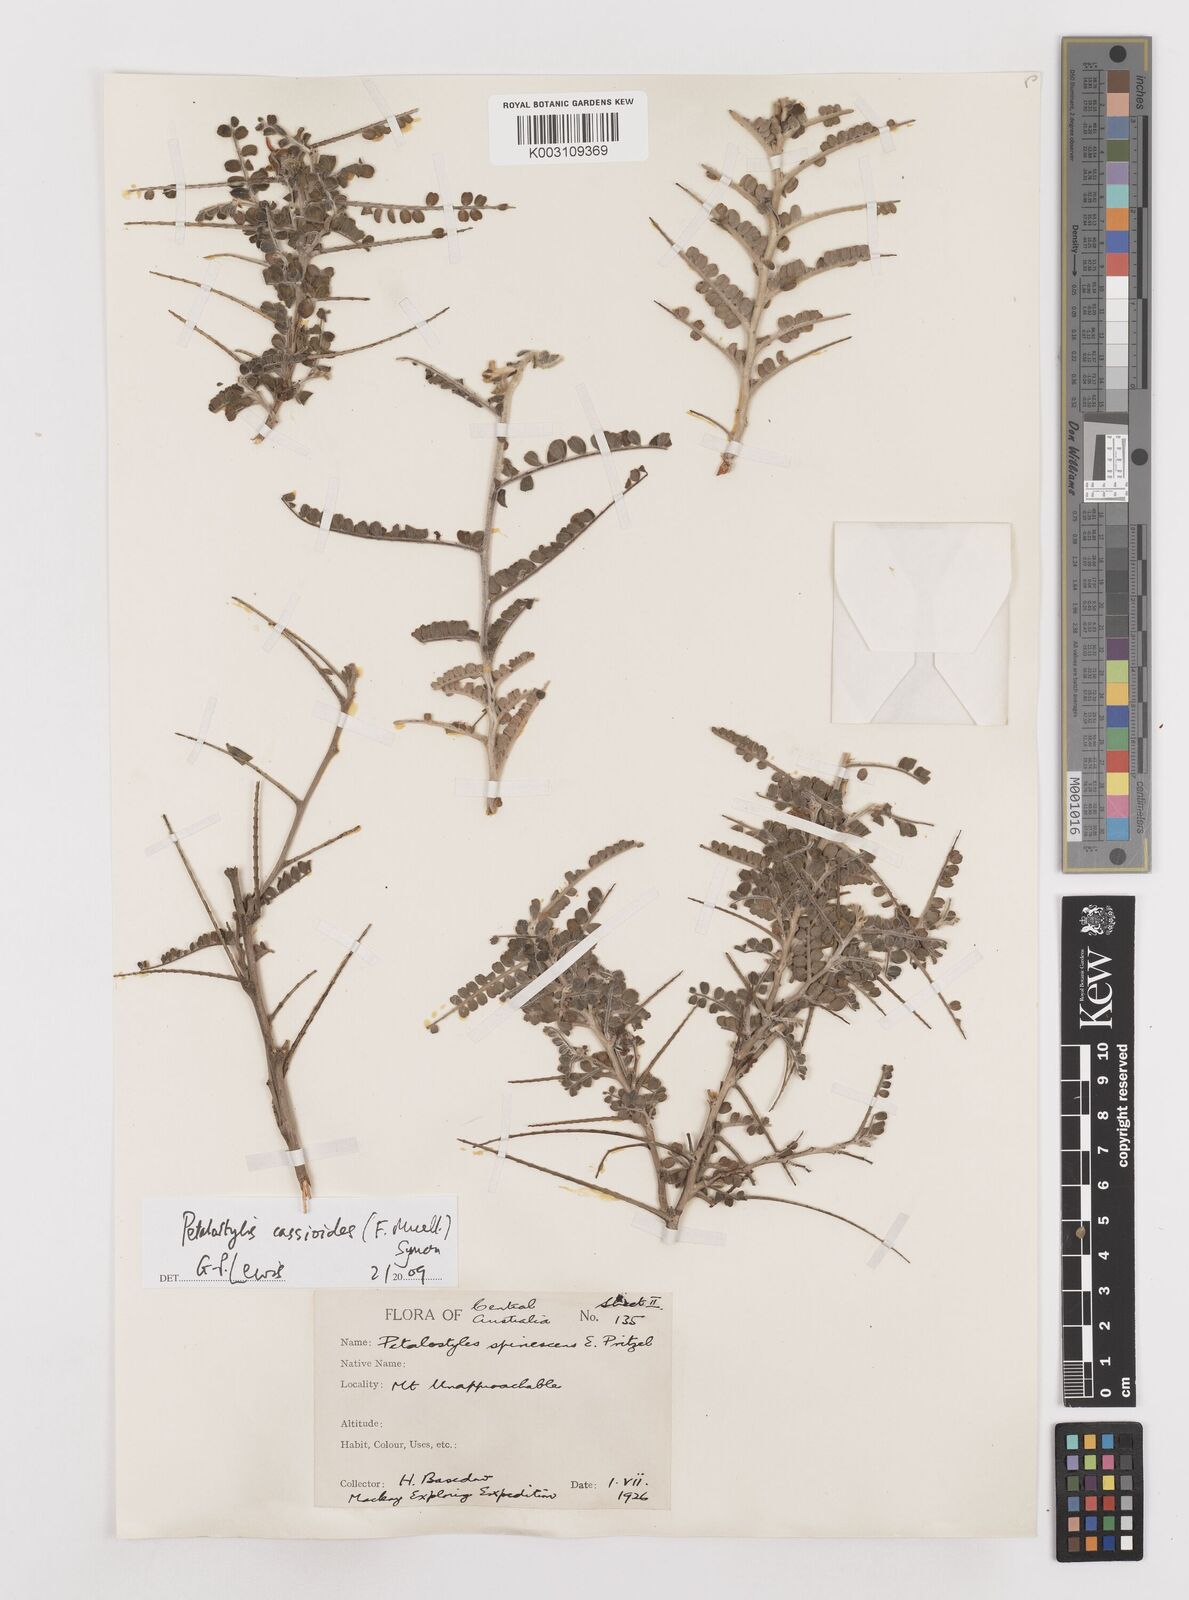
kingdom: Plantae
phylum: Tracheophyta
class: Magnoliopsida
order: Fabales
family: Fabaceae
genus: Petalostylis
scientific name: Petalostylis cassioides
